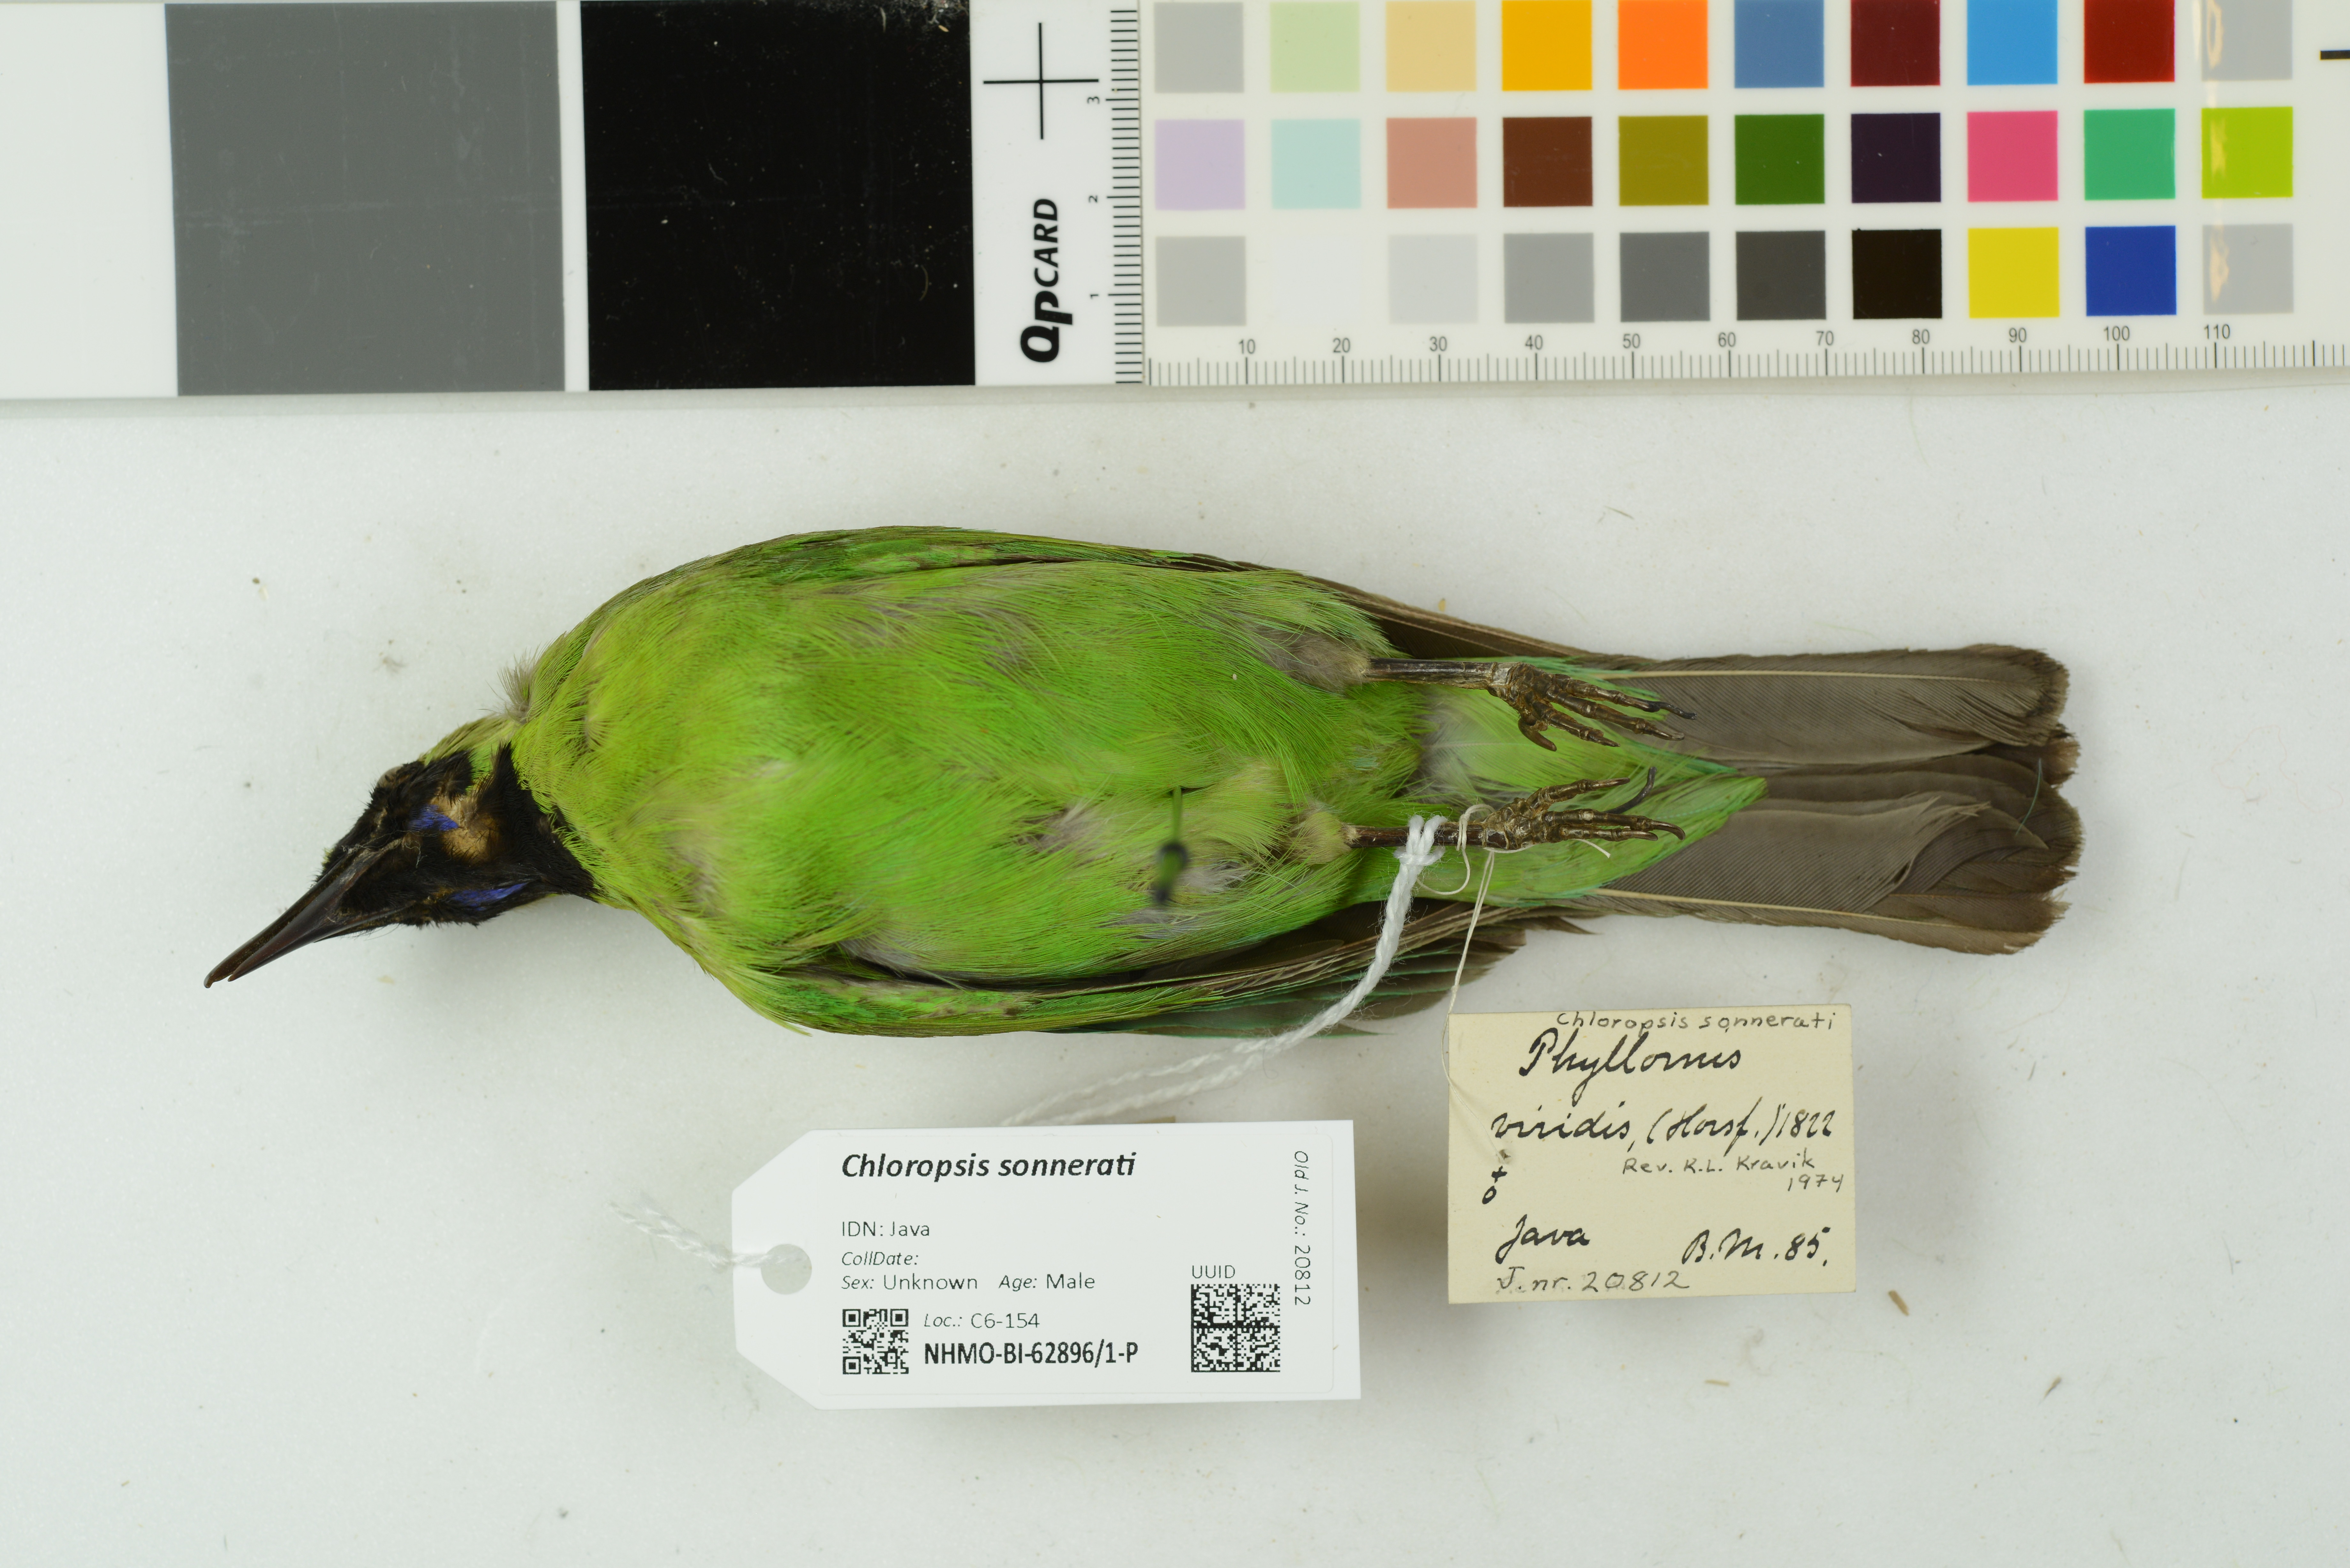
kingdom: Animalia
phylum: Chordata
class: Aves
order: Passeriformes
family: Chloropseidae
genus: Chloropsis
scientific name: Chloropsis sonnerati
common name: Greater green leafbird
